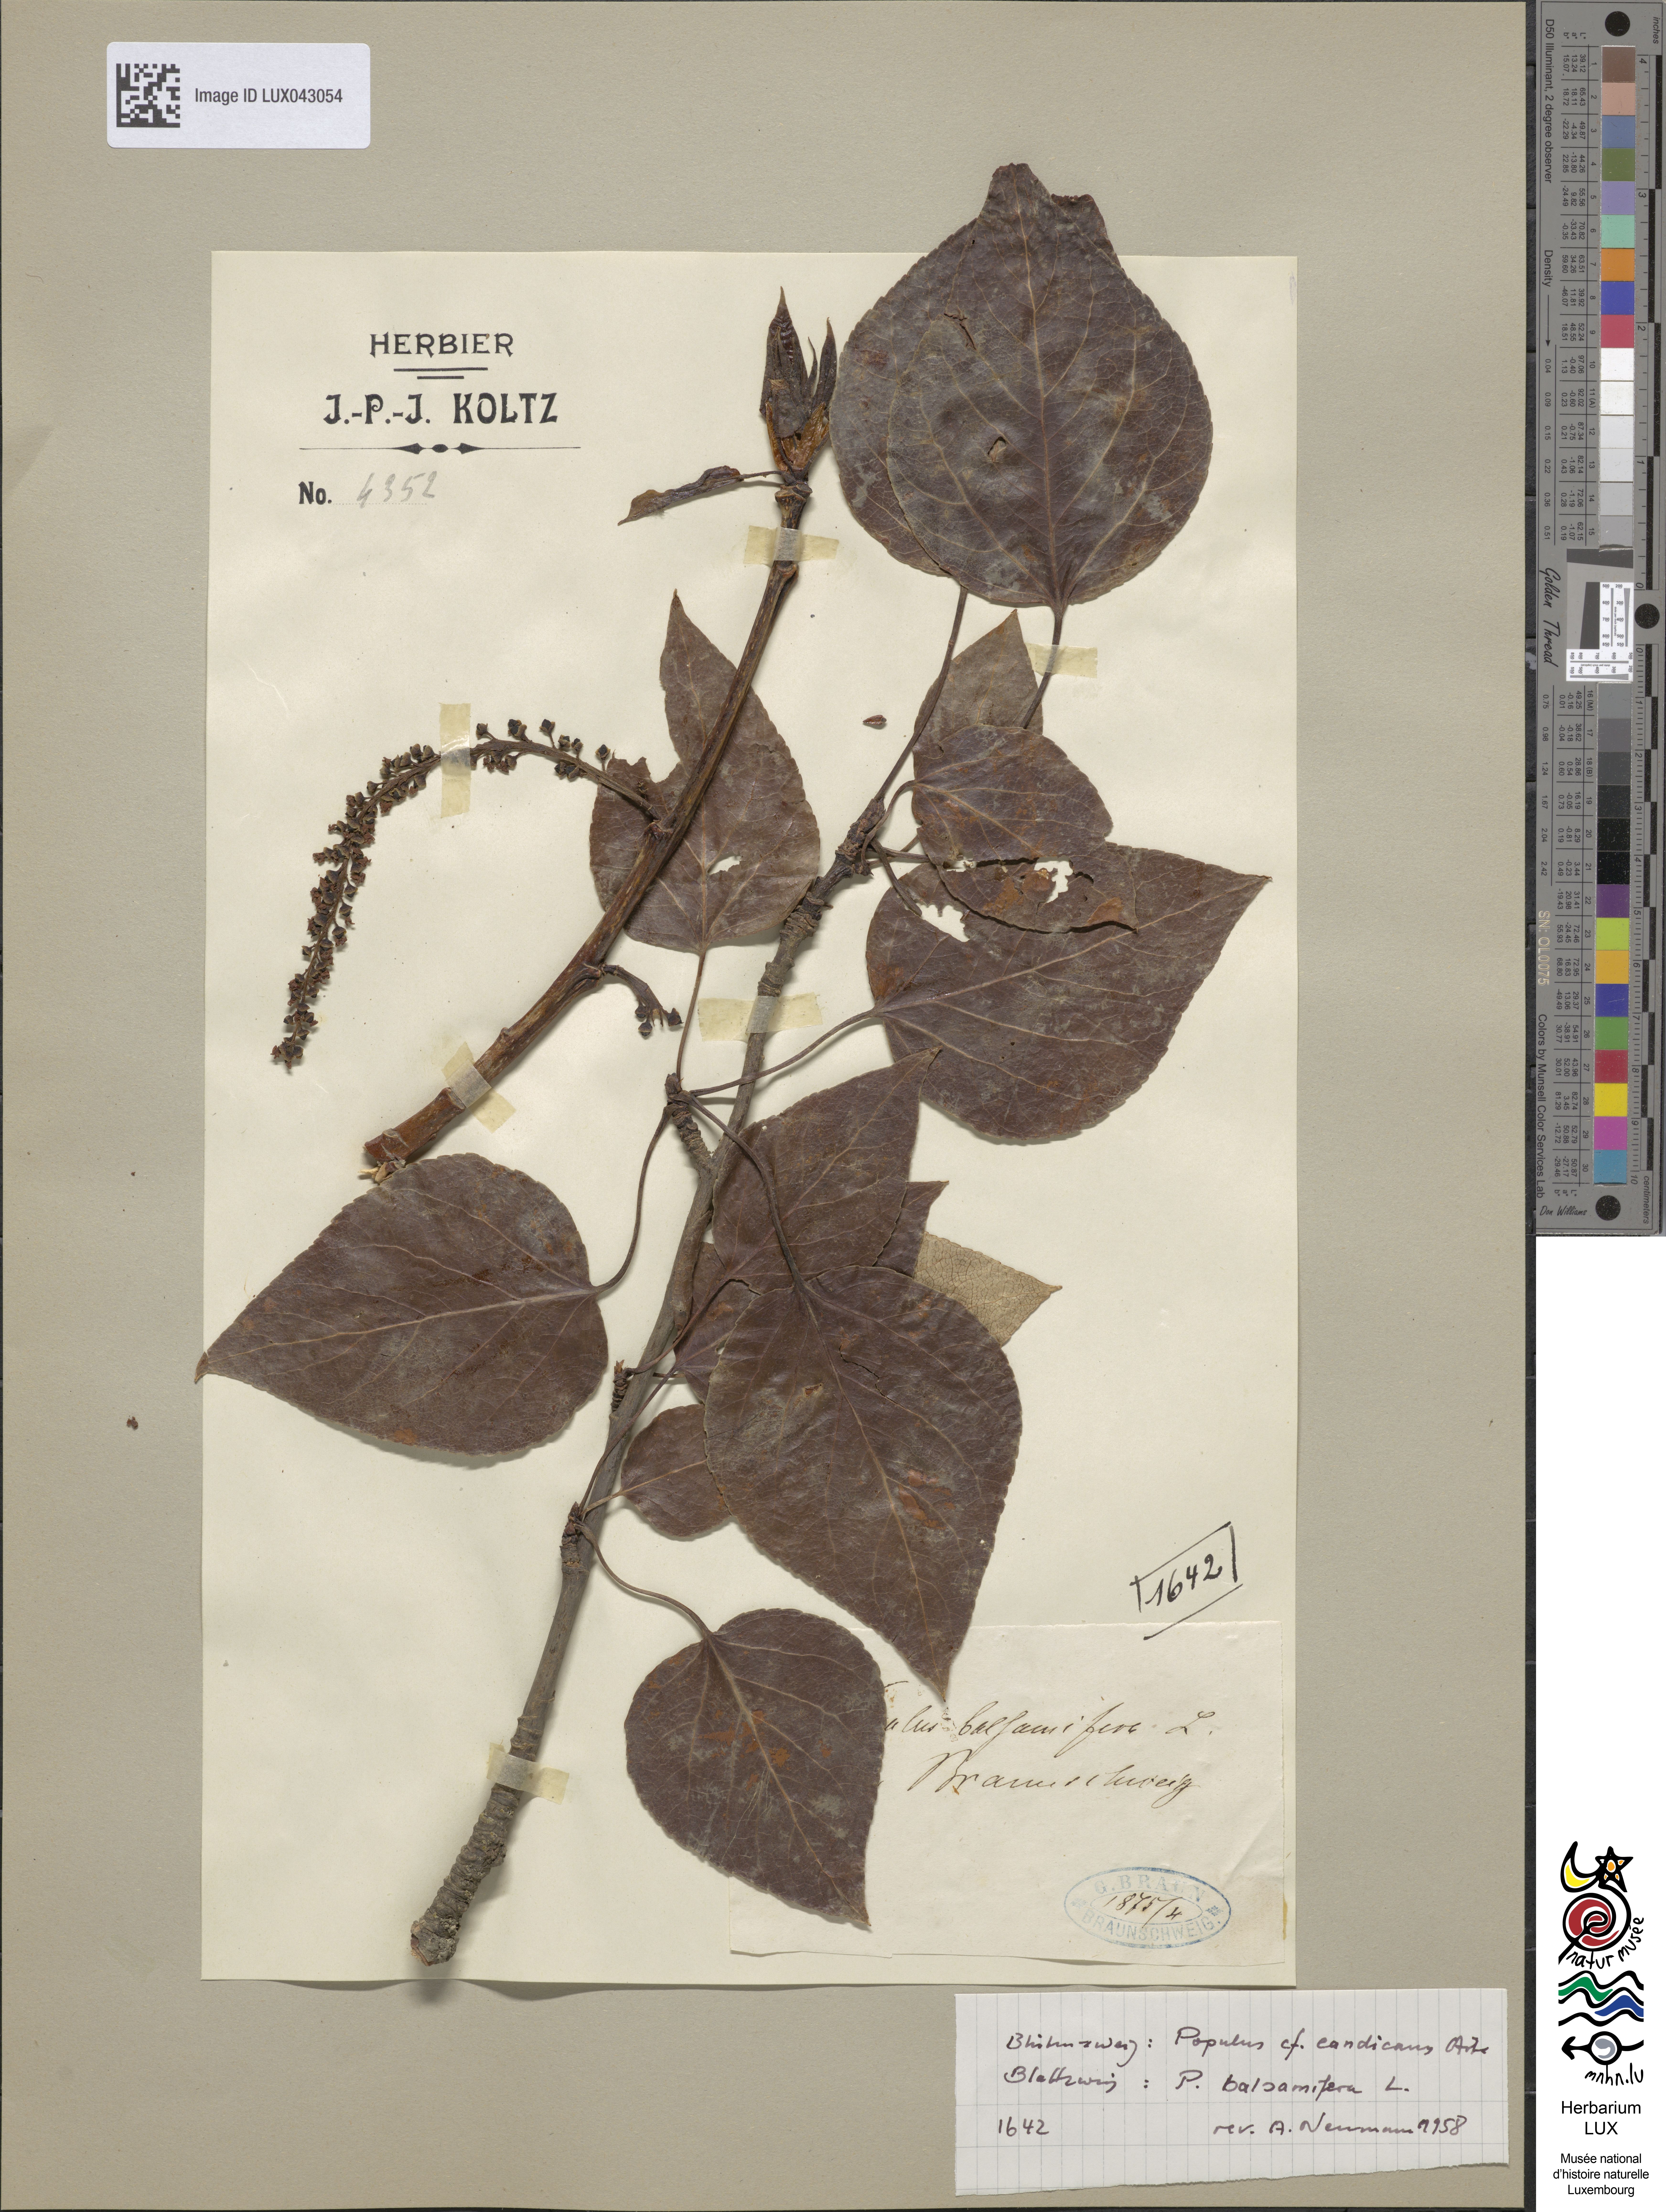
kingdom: Plantae
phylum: Tracheophyta
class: Magnoliopsida
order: Malpighiales
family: Salicaceae
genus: Populus
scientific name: Populus balsamifera
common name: Balsam poplar
